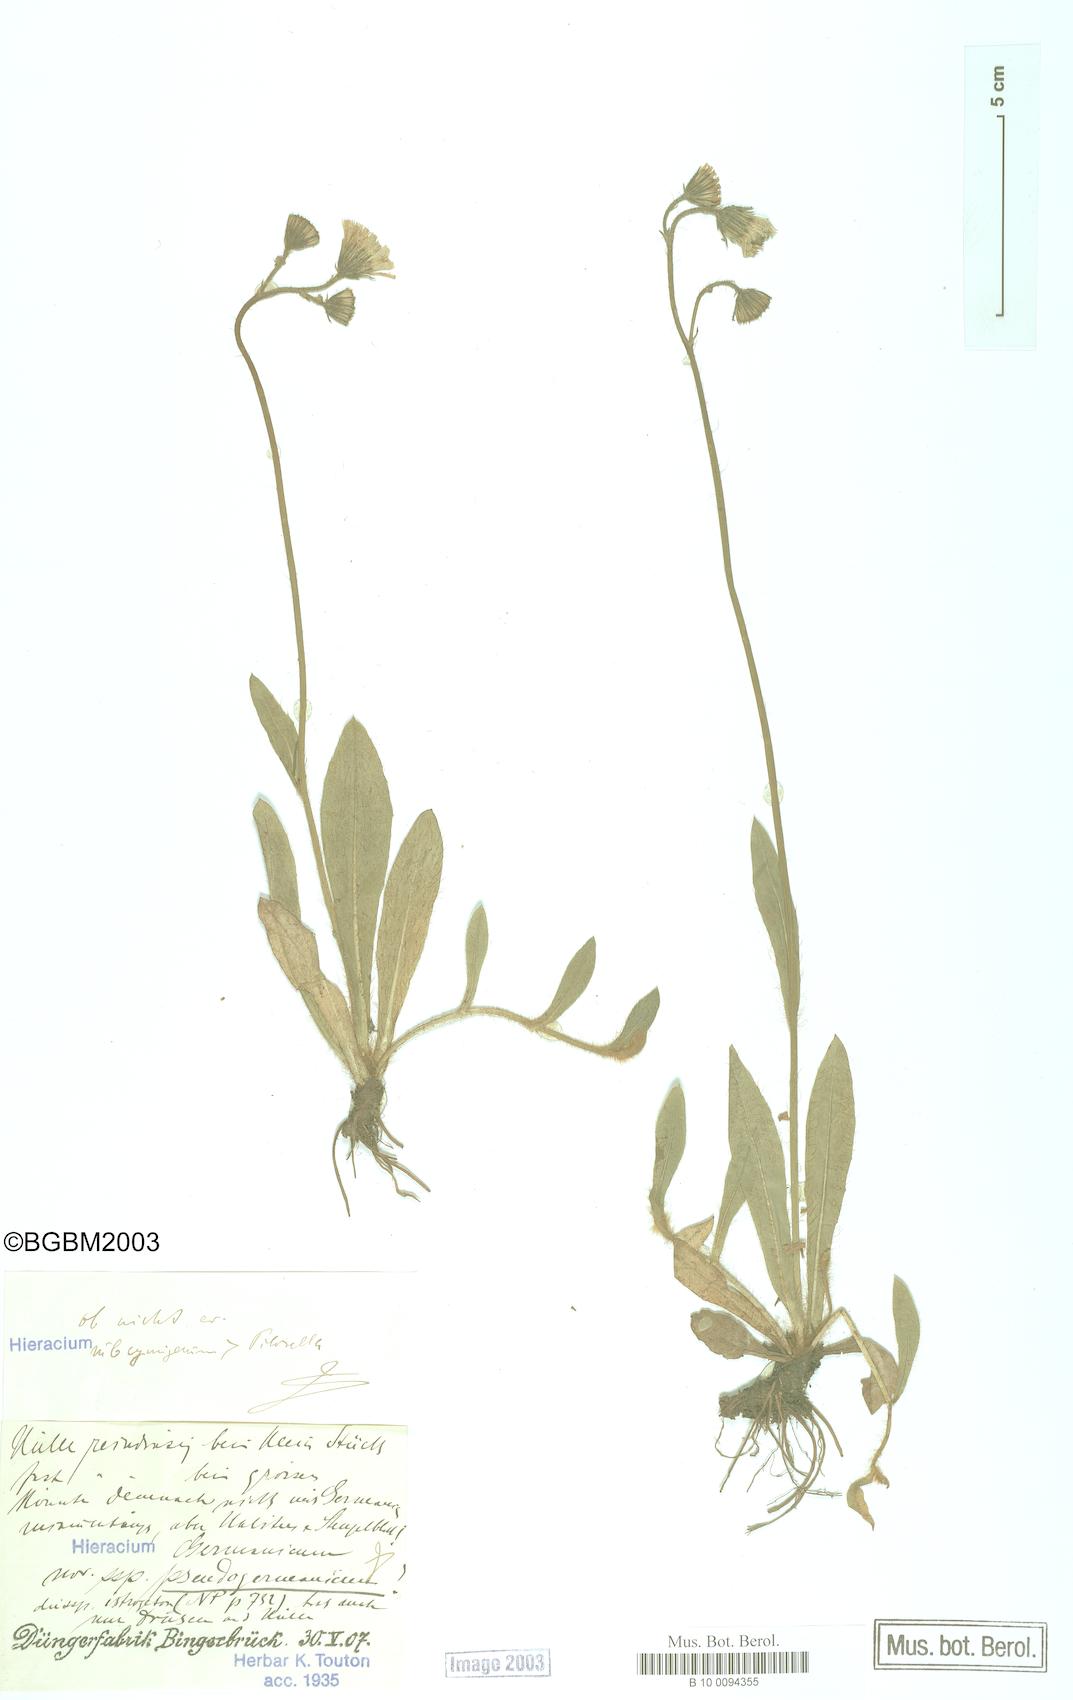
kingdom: Plantae
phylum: Tracheophyta
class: Magnoliopsida
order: Asterales
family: Asteraceae
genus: Pilosella
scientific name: Pilosella fallacina
